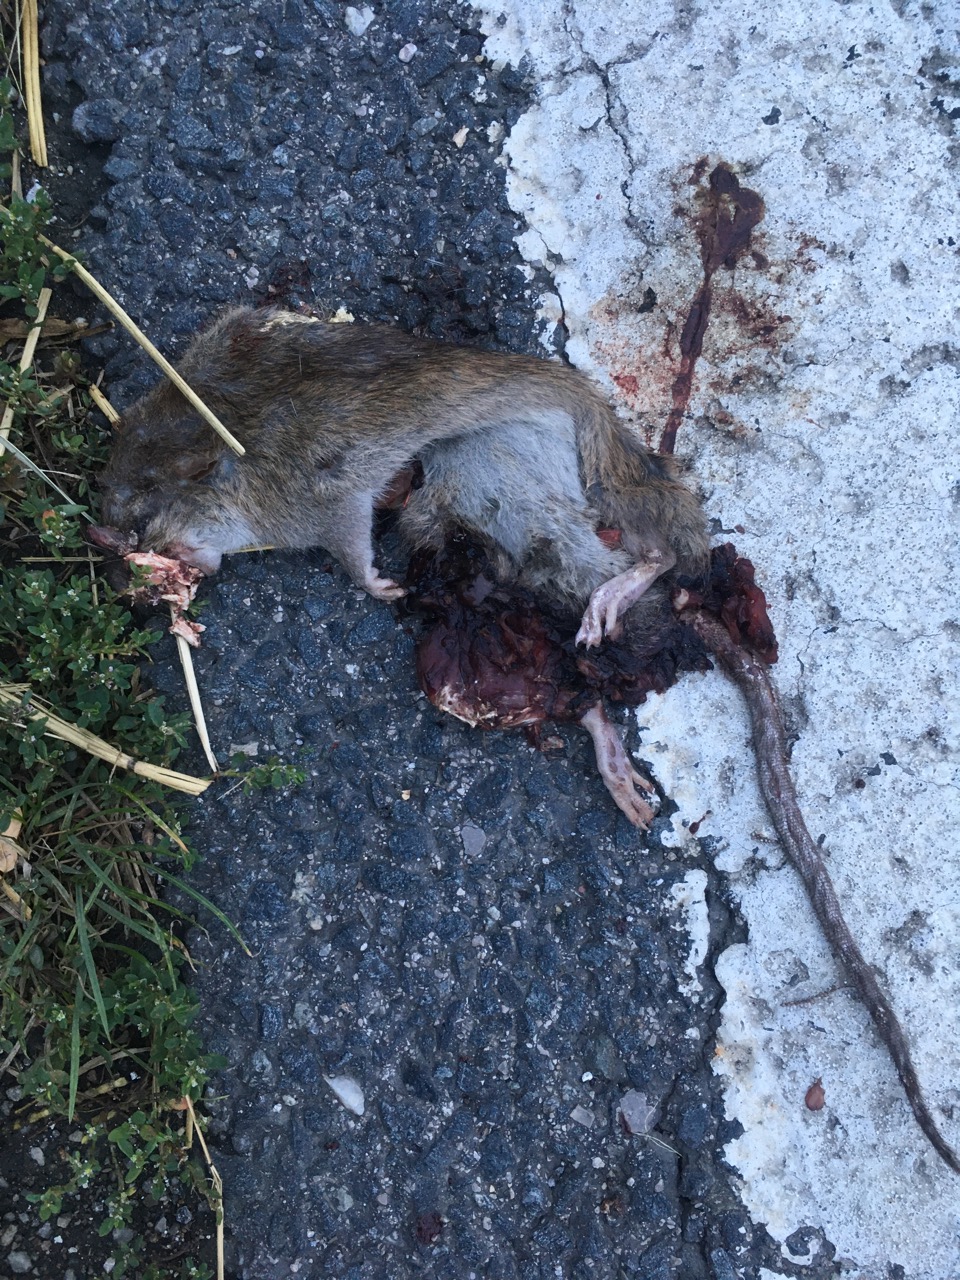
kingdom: Animalia
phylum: Chordata
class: Mammalia
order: Rodentia
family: Muridae
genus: Rattus
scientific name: Rattus
